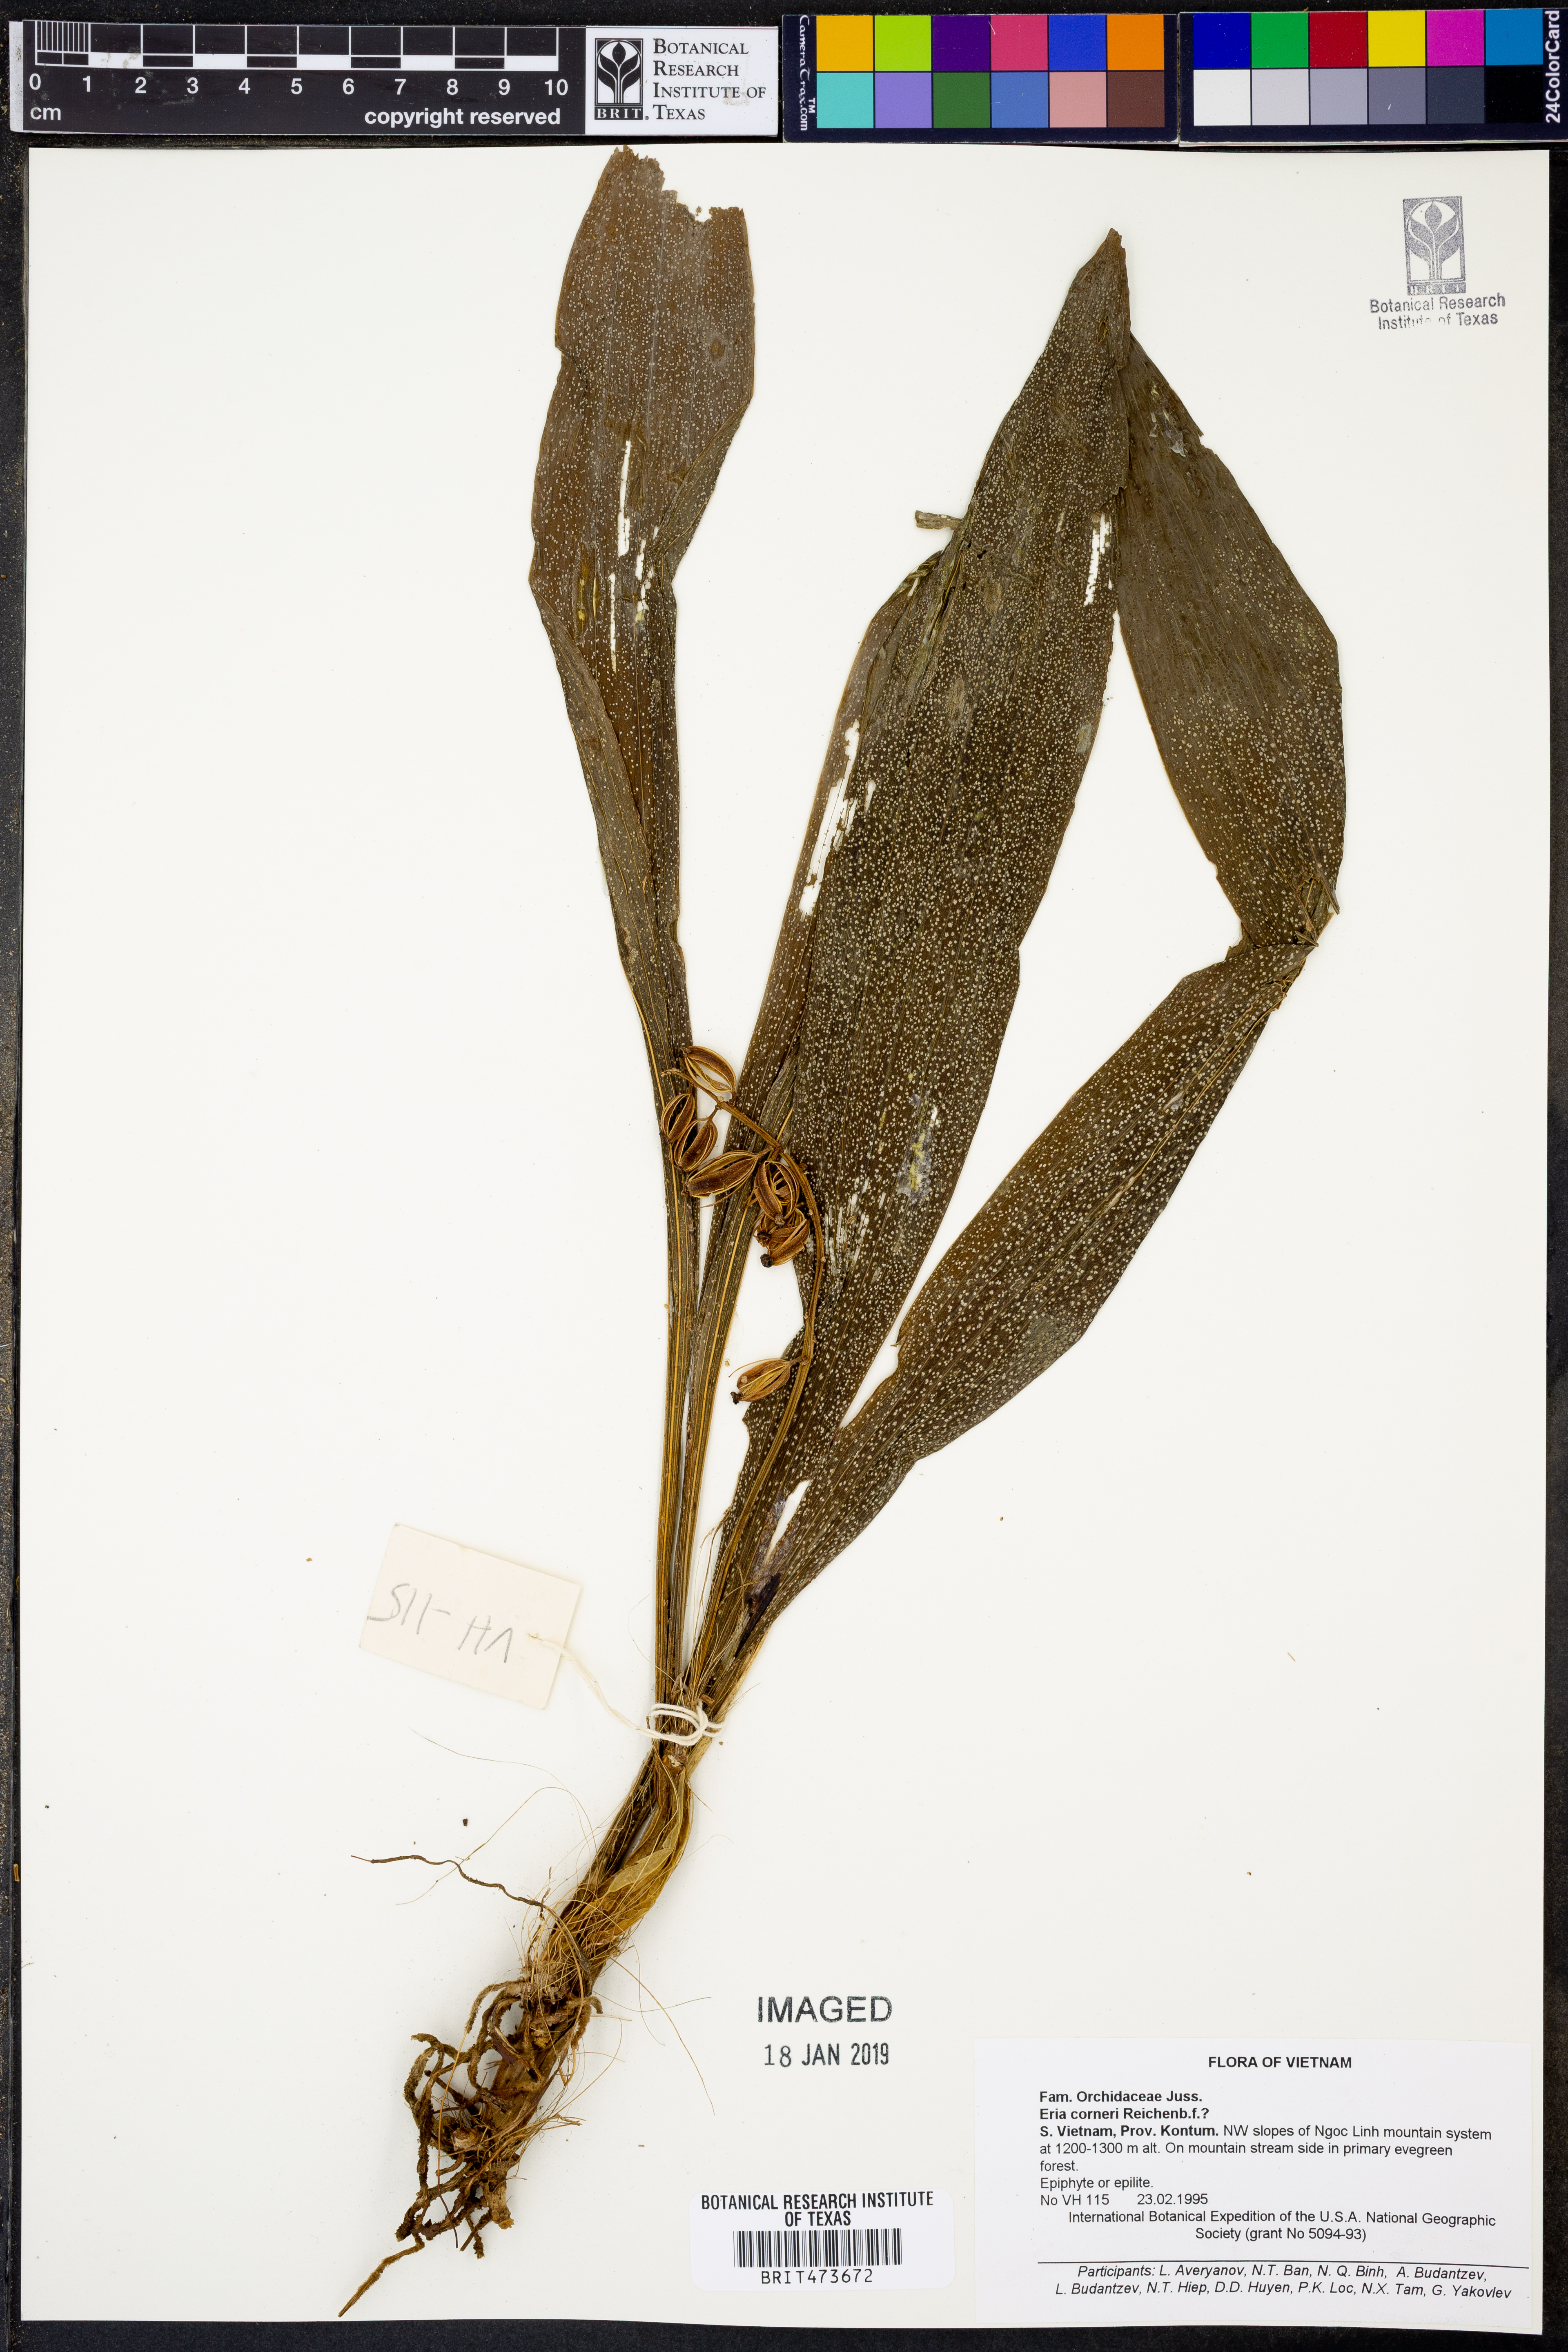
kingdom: Plantae
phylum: Tracheophyta
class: Liliopsida
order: Asparagales
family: Orchidaceae
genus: Eria
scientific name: Eria scabrilinguis
